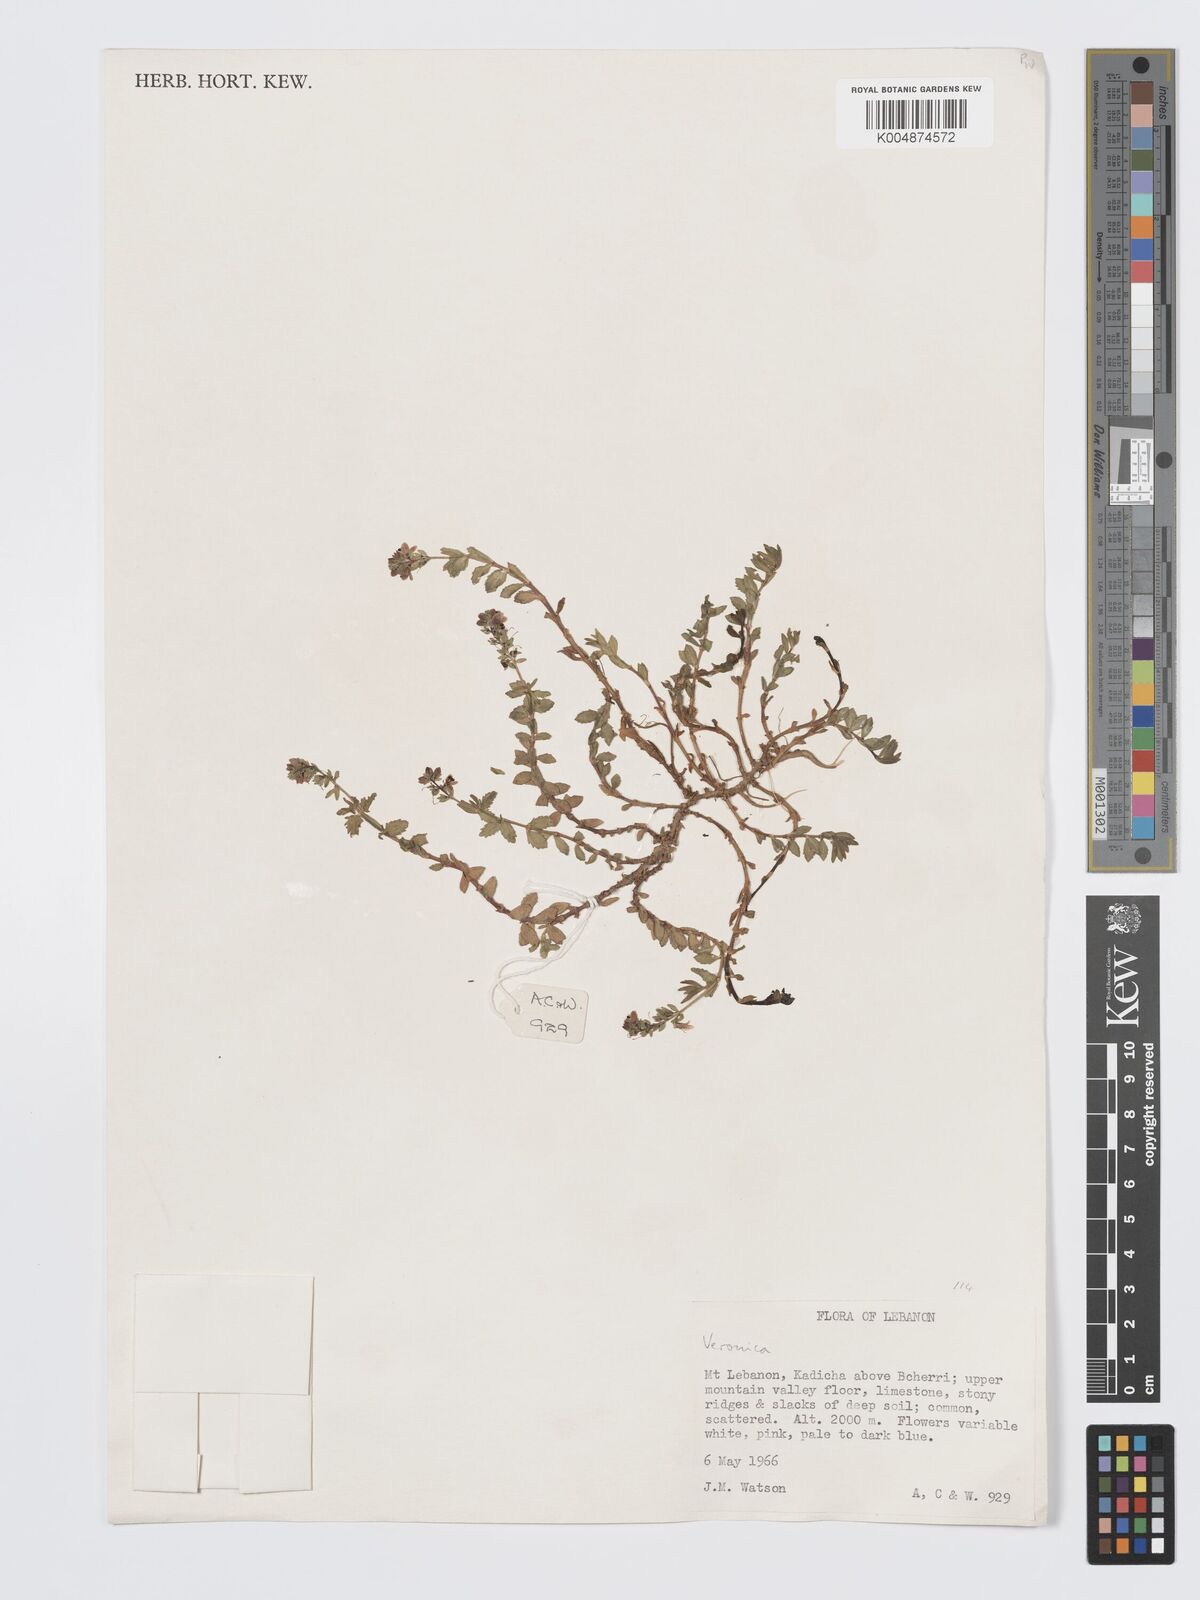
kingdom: Plantae
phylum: Tracheophyta
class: Magnoliopsida
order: Lamiales
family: Plantaginaceae
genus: Veronica
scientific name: Veronica
